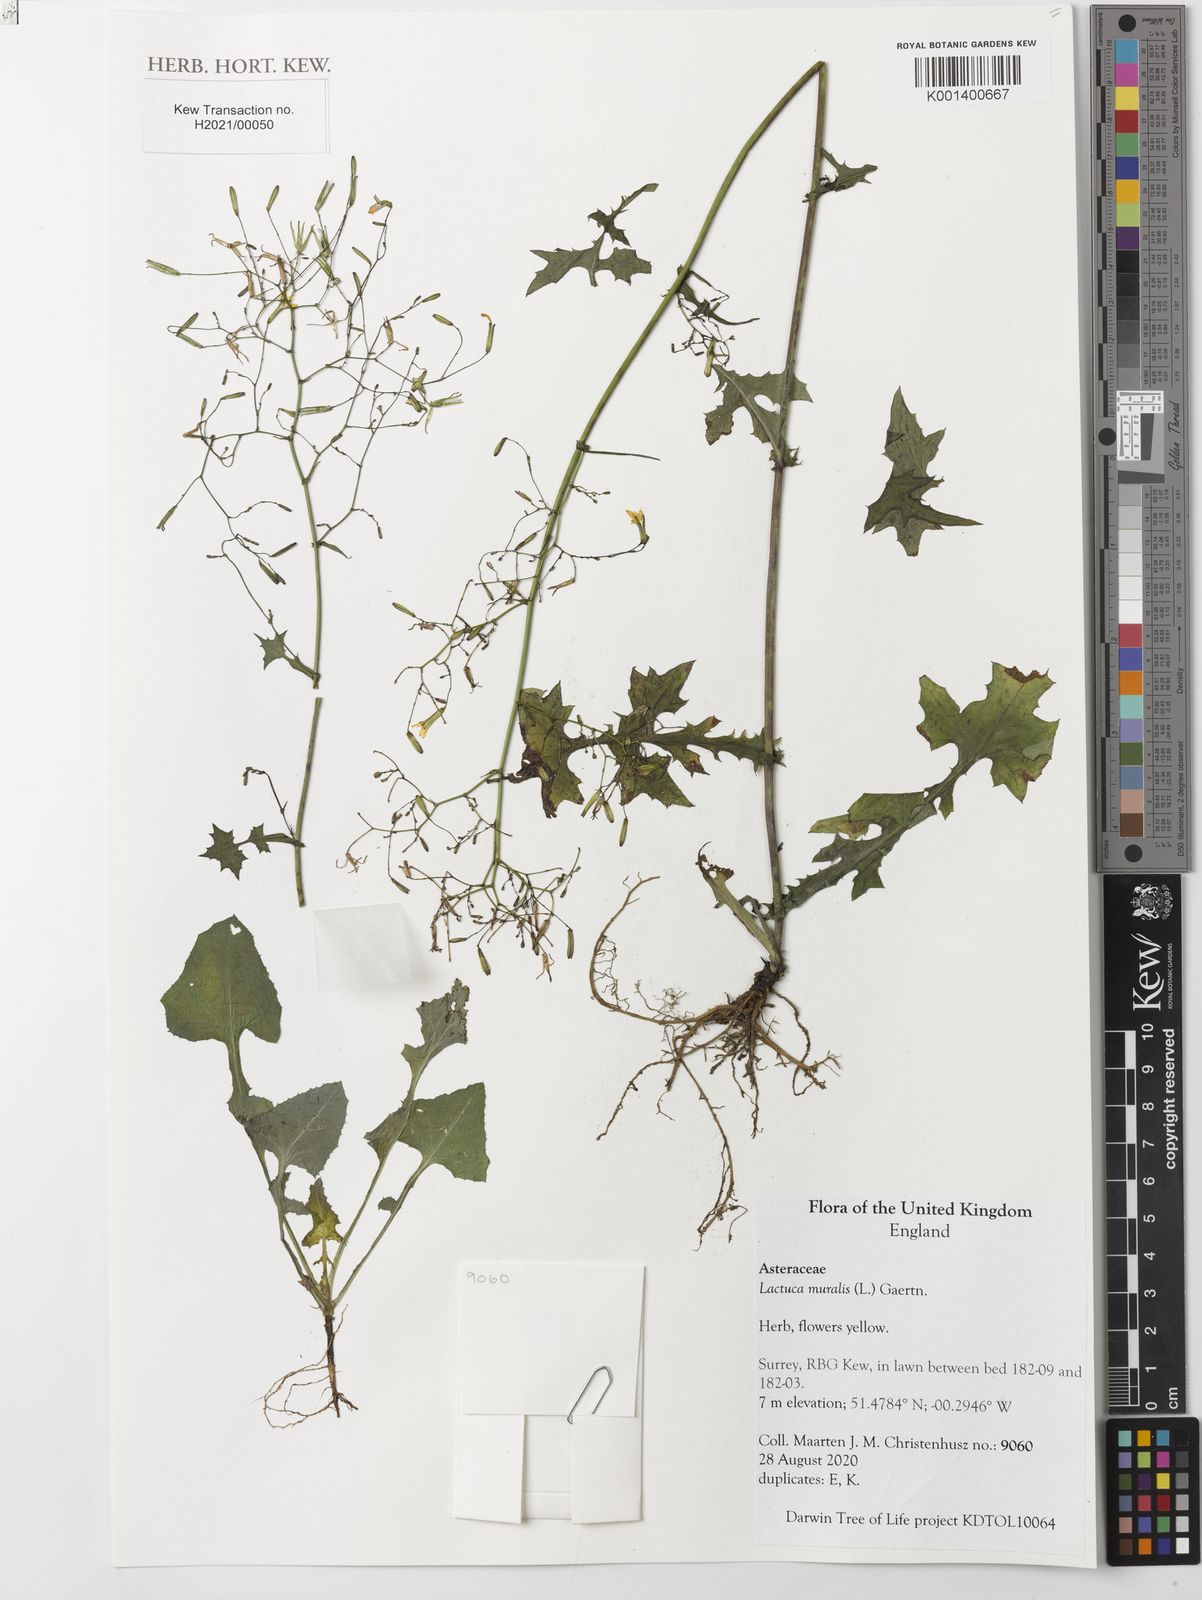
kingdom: Plantae
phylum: Tracheophyta
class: Magnoliopsida
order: Asterales
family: Asteraceae
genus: Mycelis
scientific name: Mycelis muralis
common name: Wall lettuce
